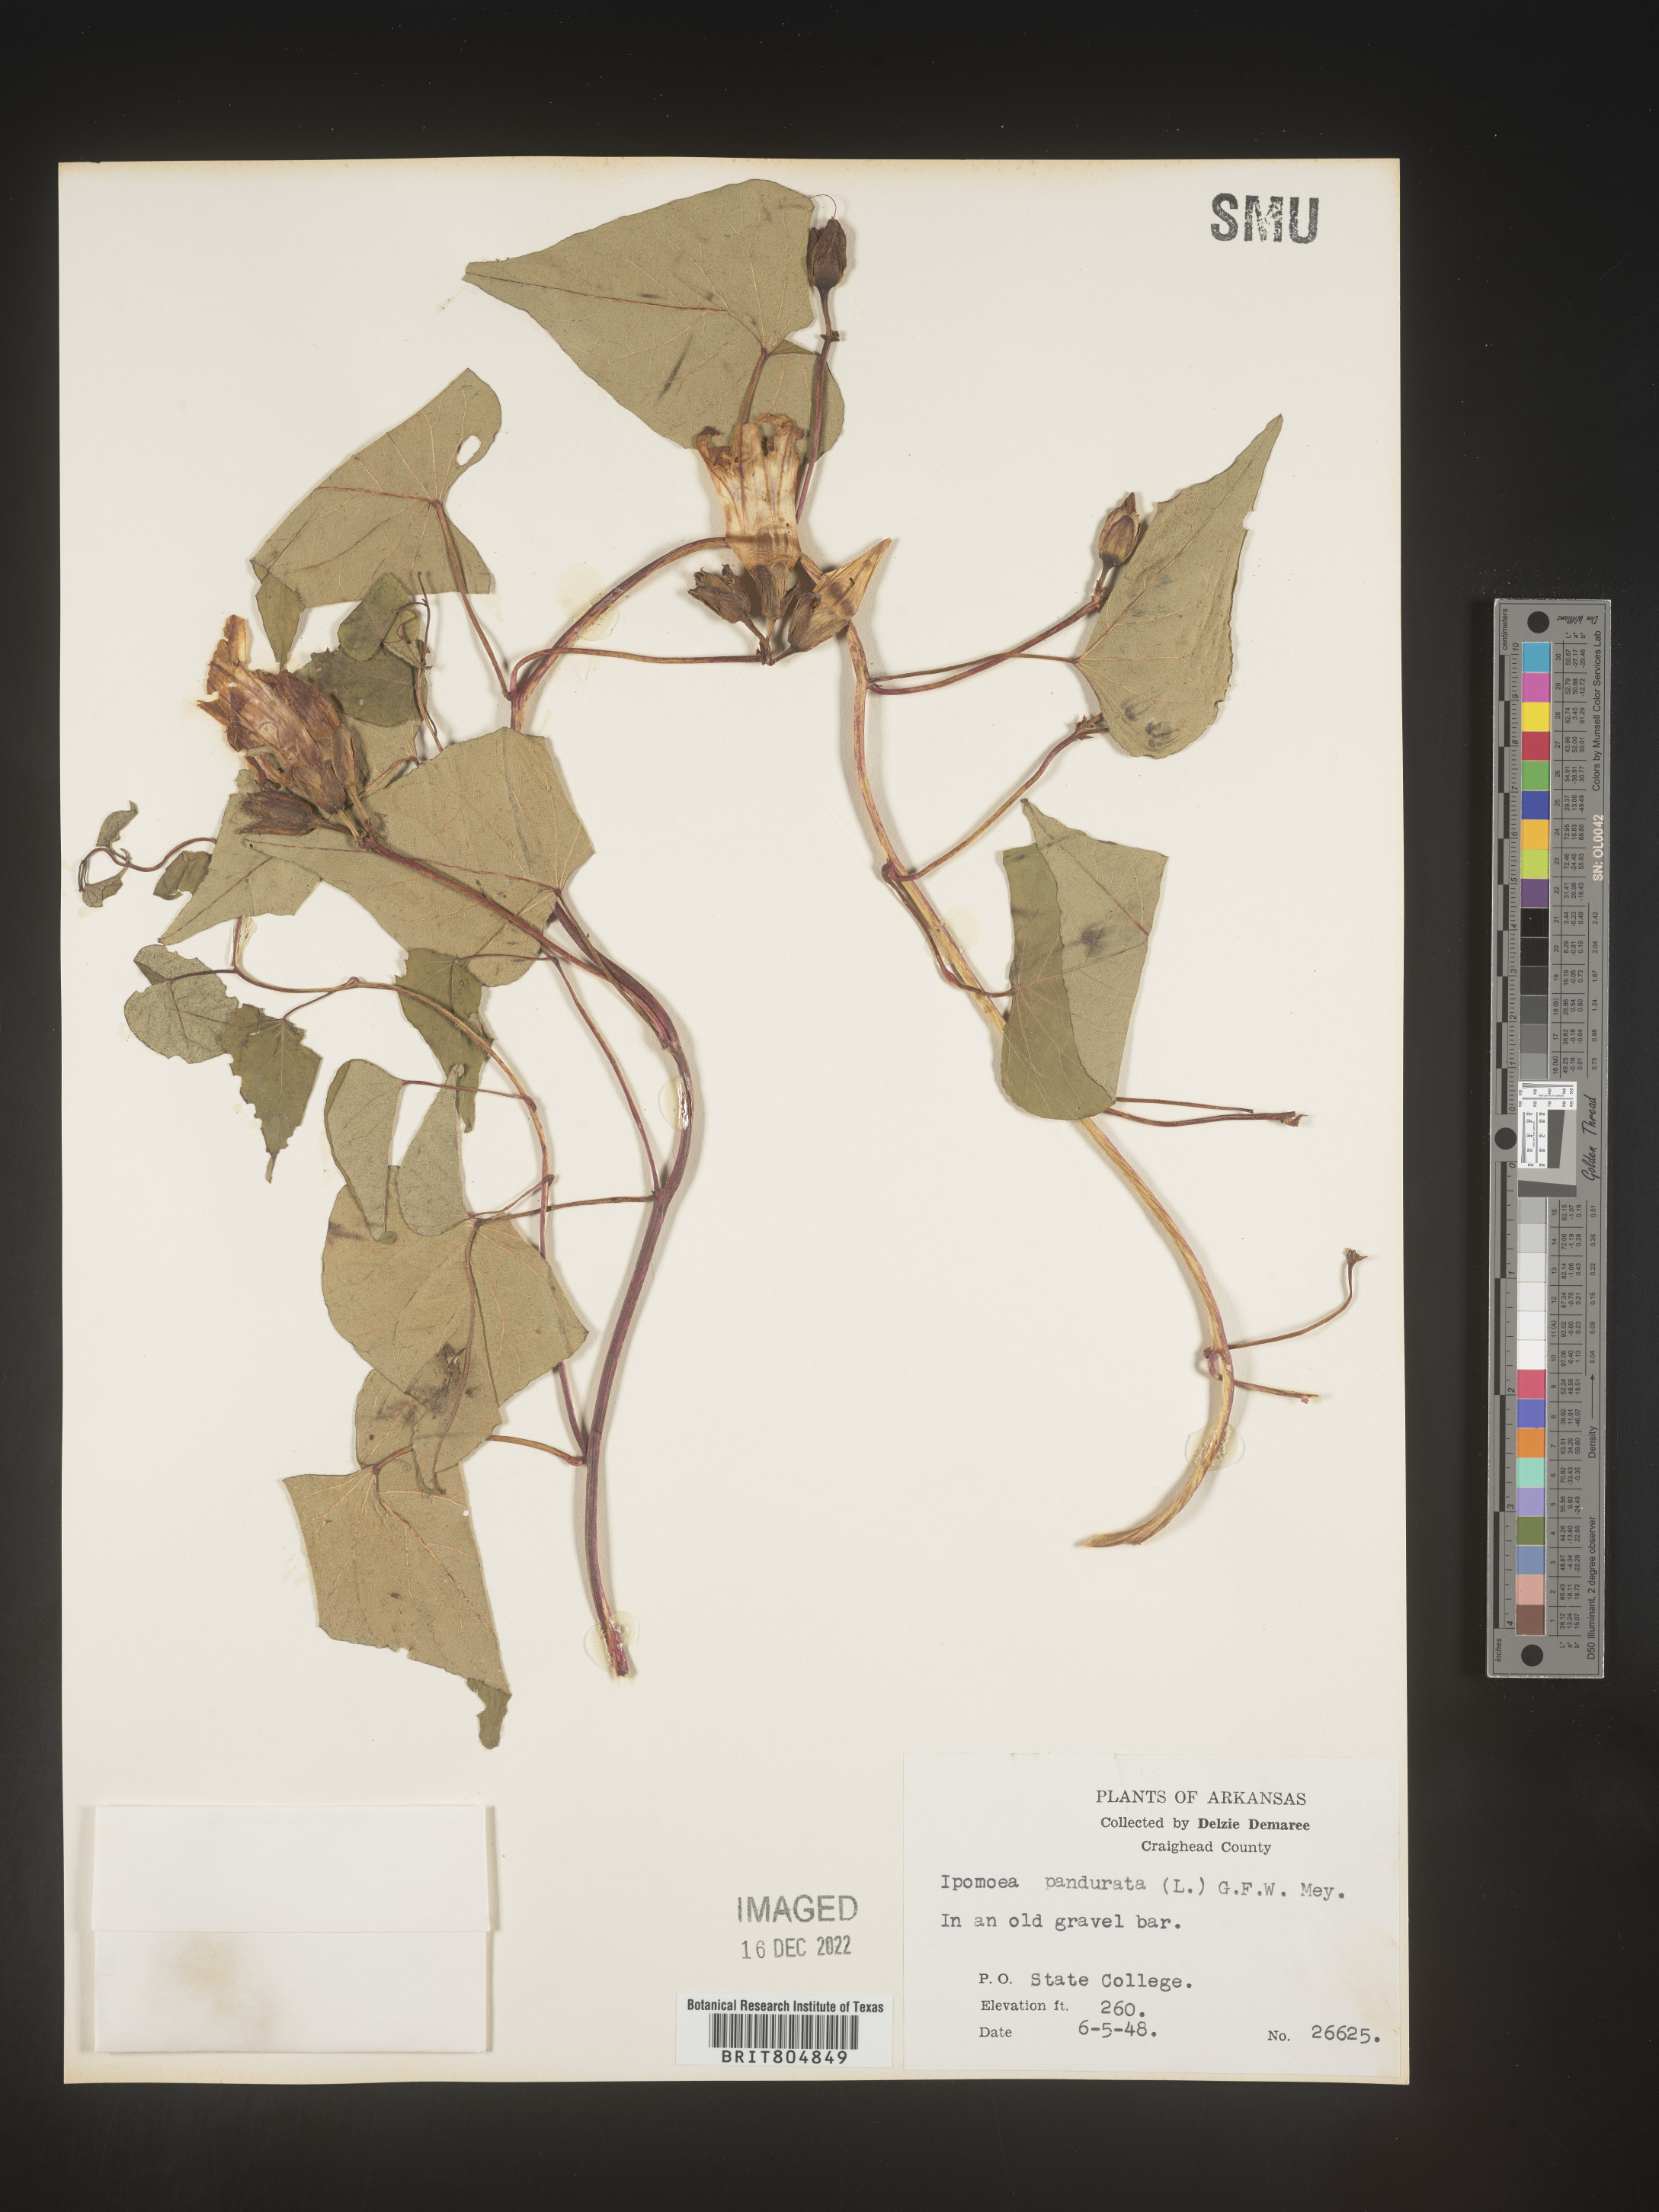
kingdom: Plantae
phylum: Tracheophyta
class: Magnoliopsida
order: Solanales
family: Convolvulaceae
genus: Ipomoea
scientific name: Ipomoea pandurata
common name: Man-of-the-earth
